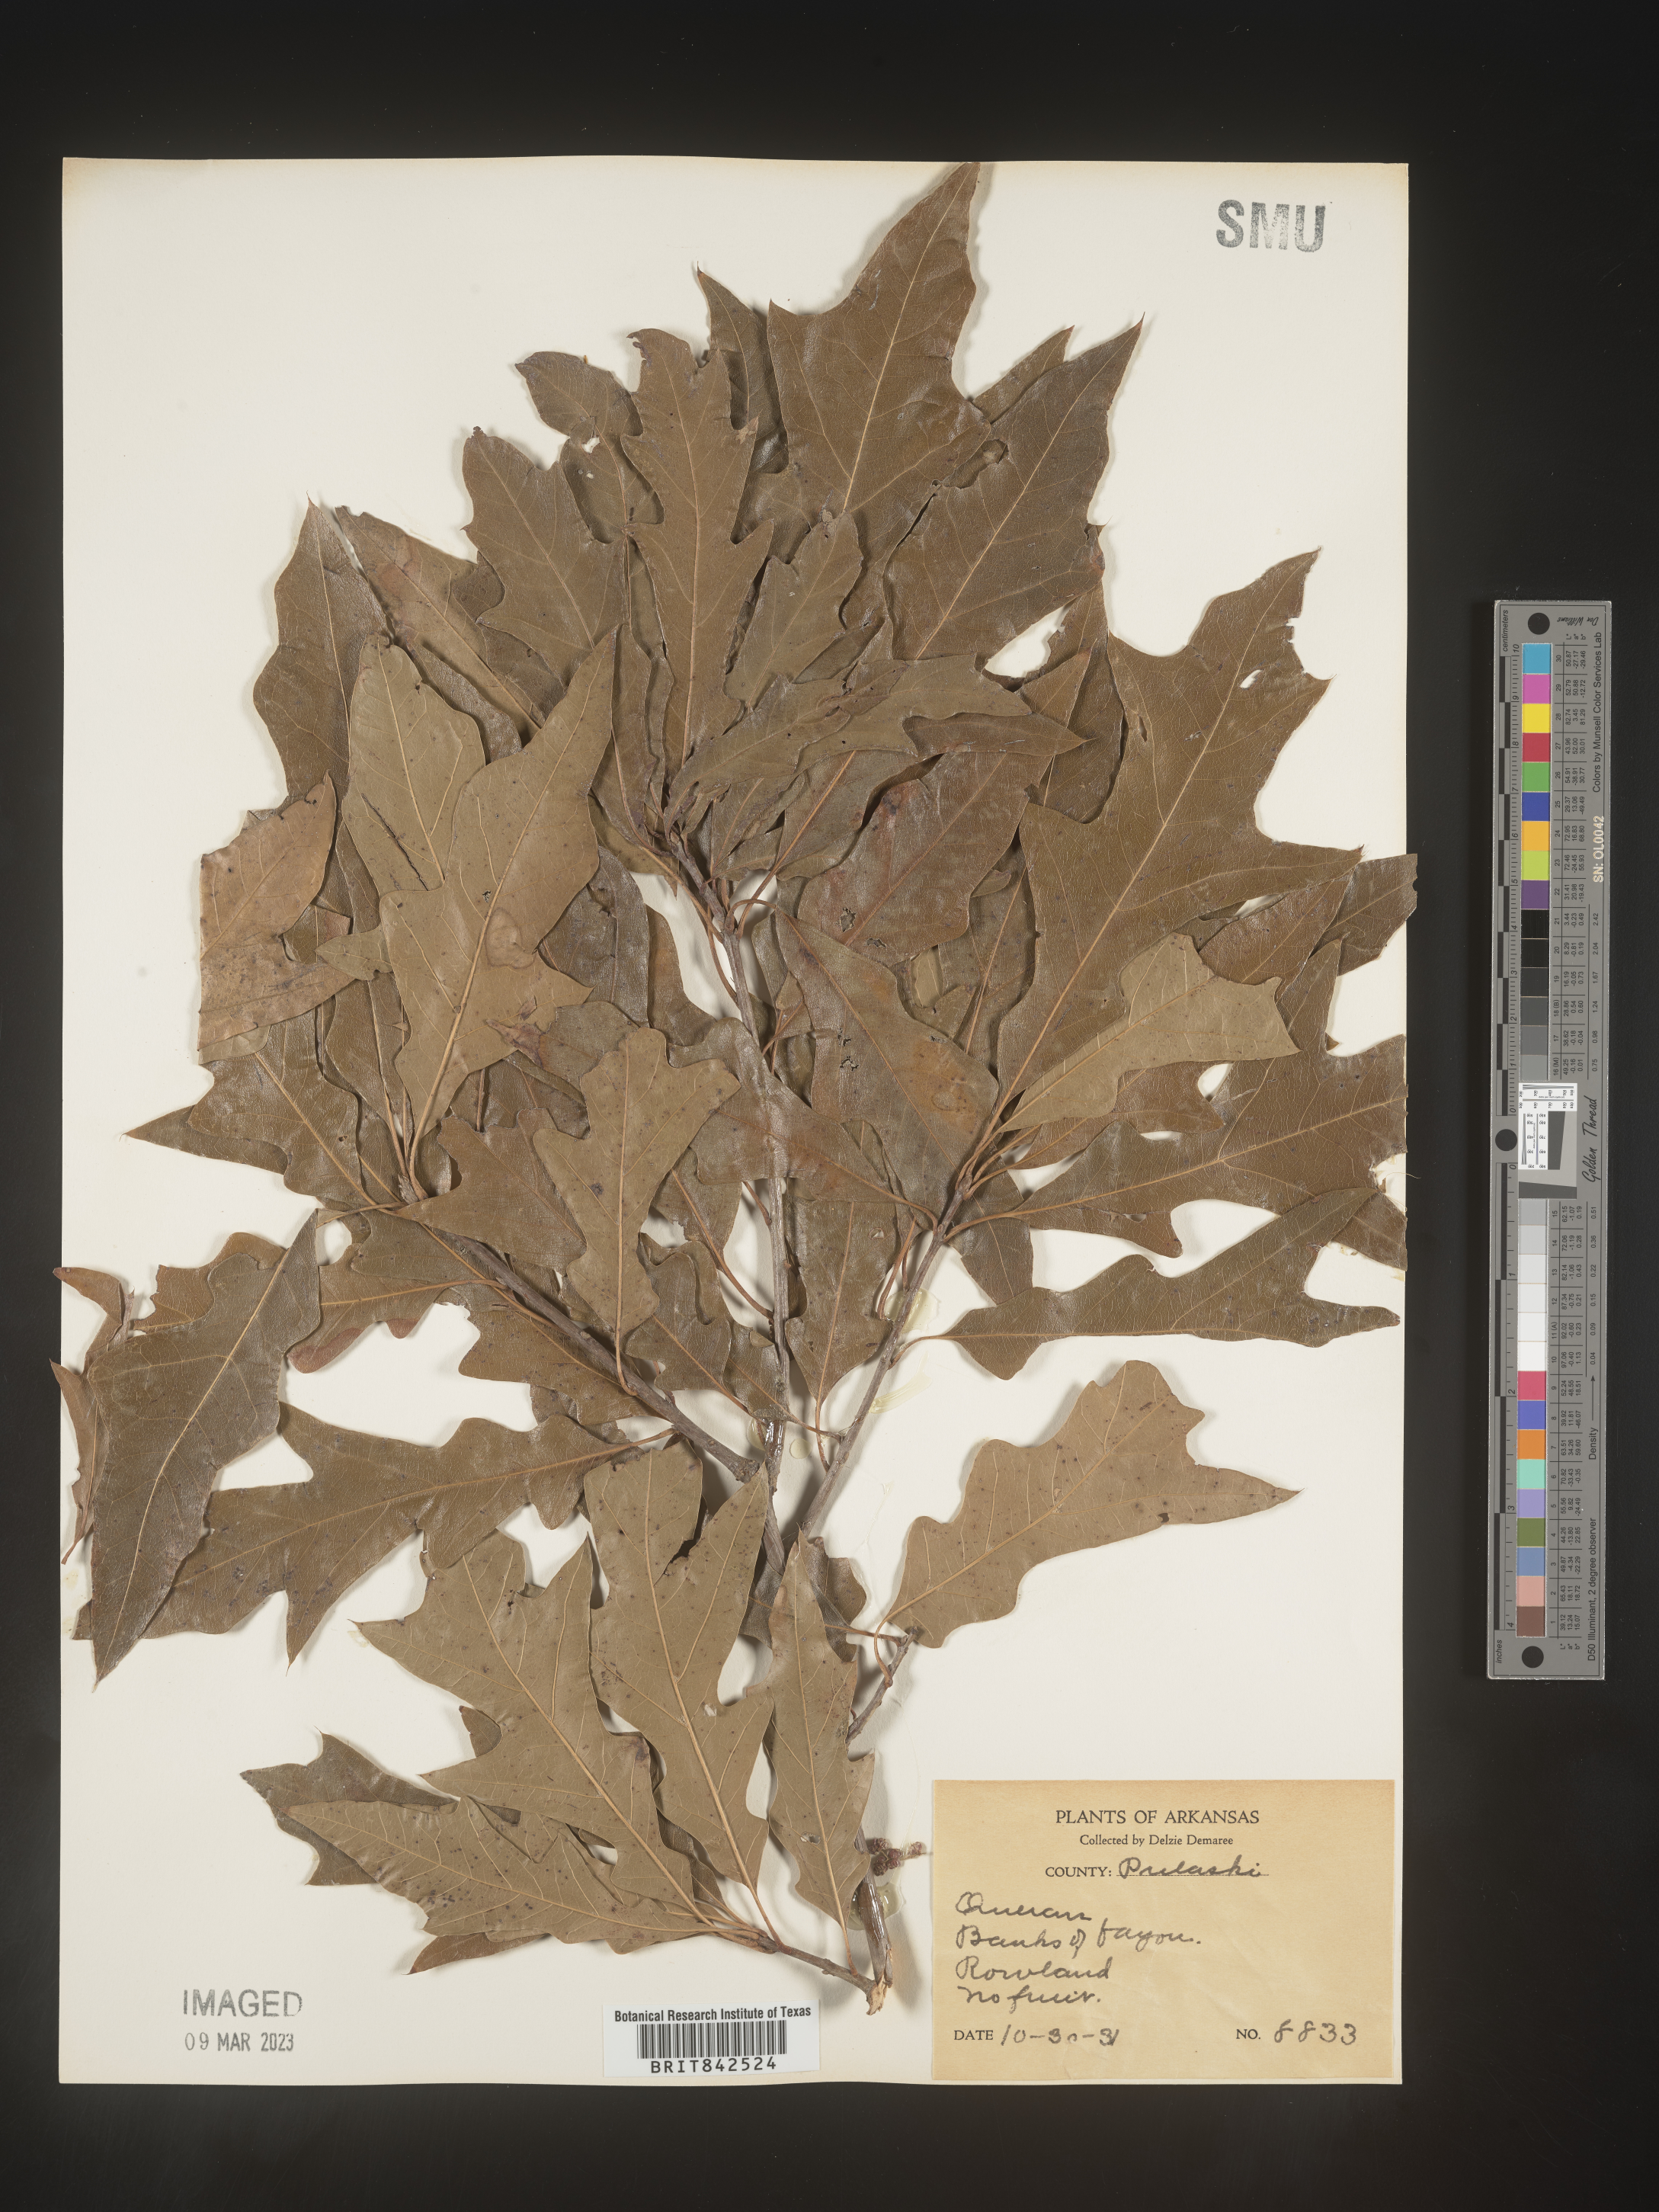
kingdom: Plantae
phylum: Tracheophyta
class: Magnoliopsida
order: Fagales
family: Fagaceae
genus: Quercus
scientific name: Quercus
